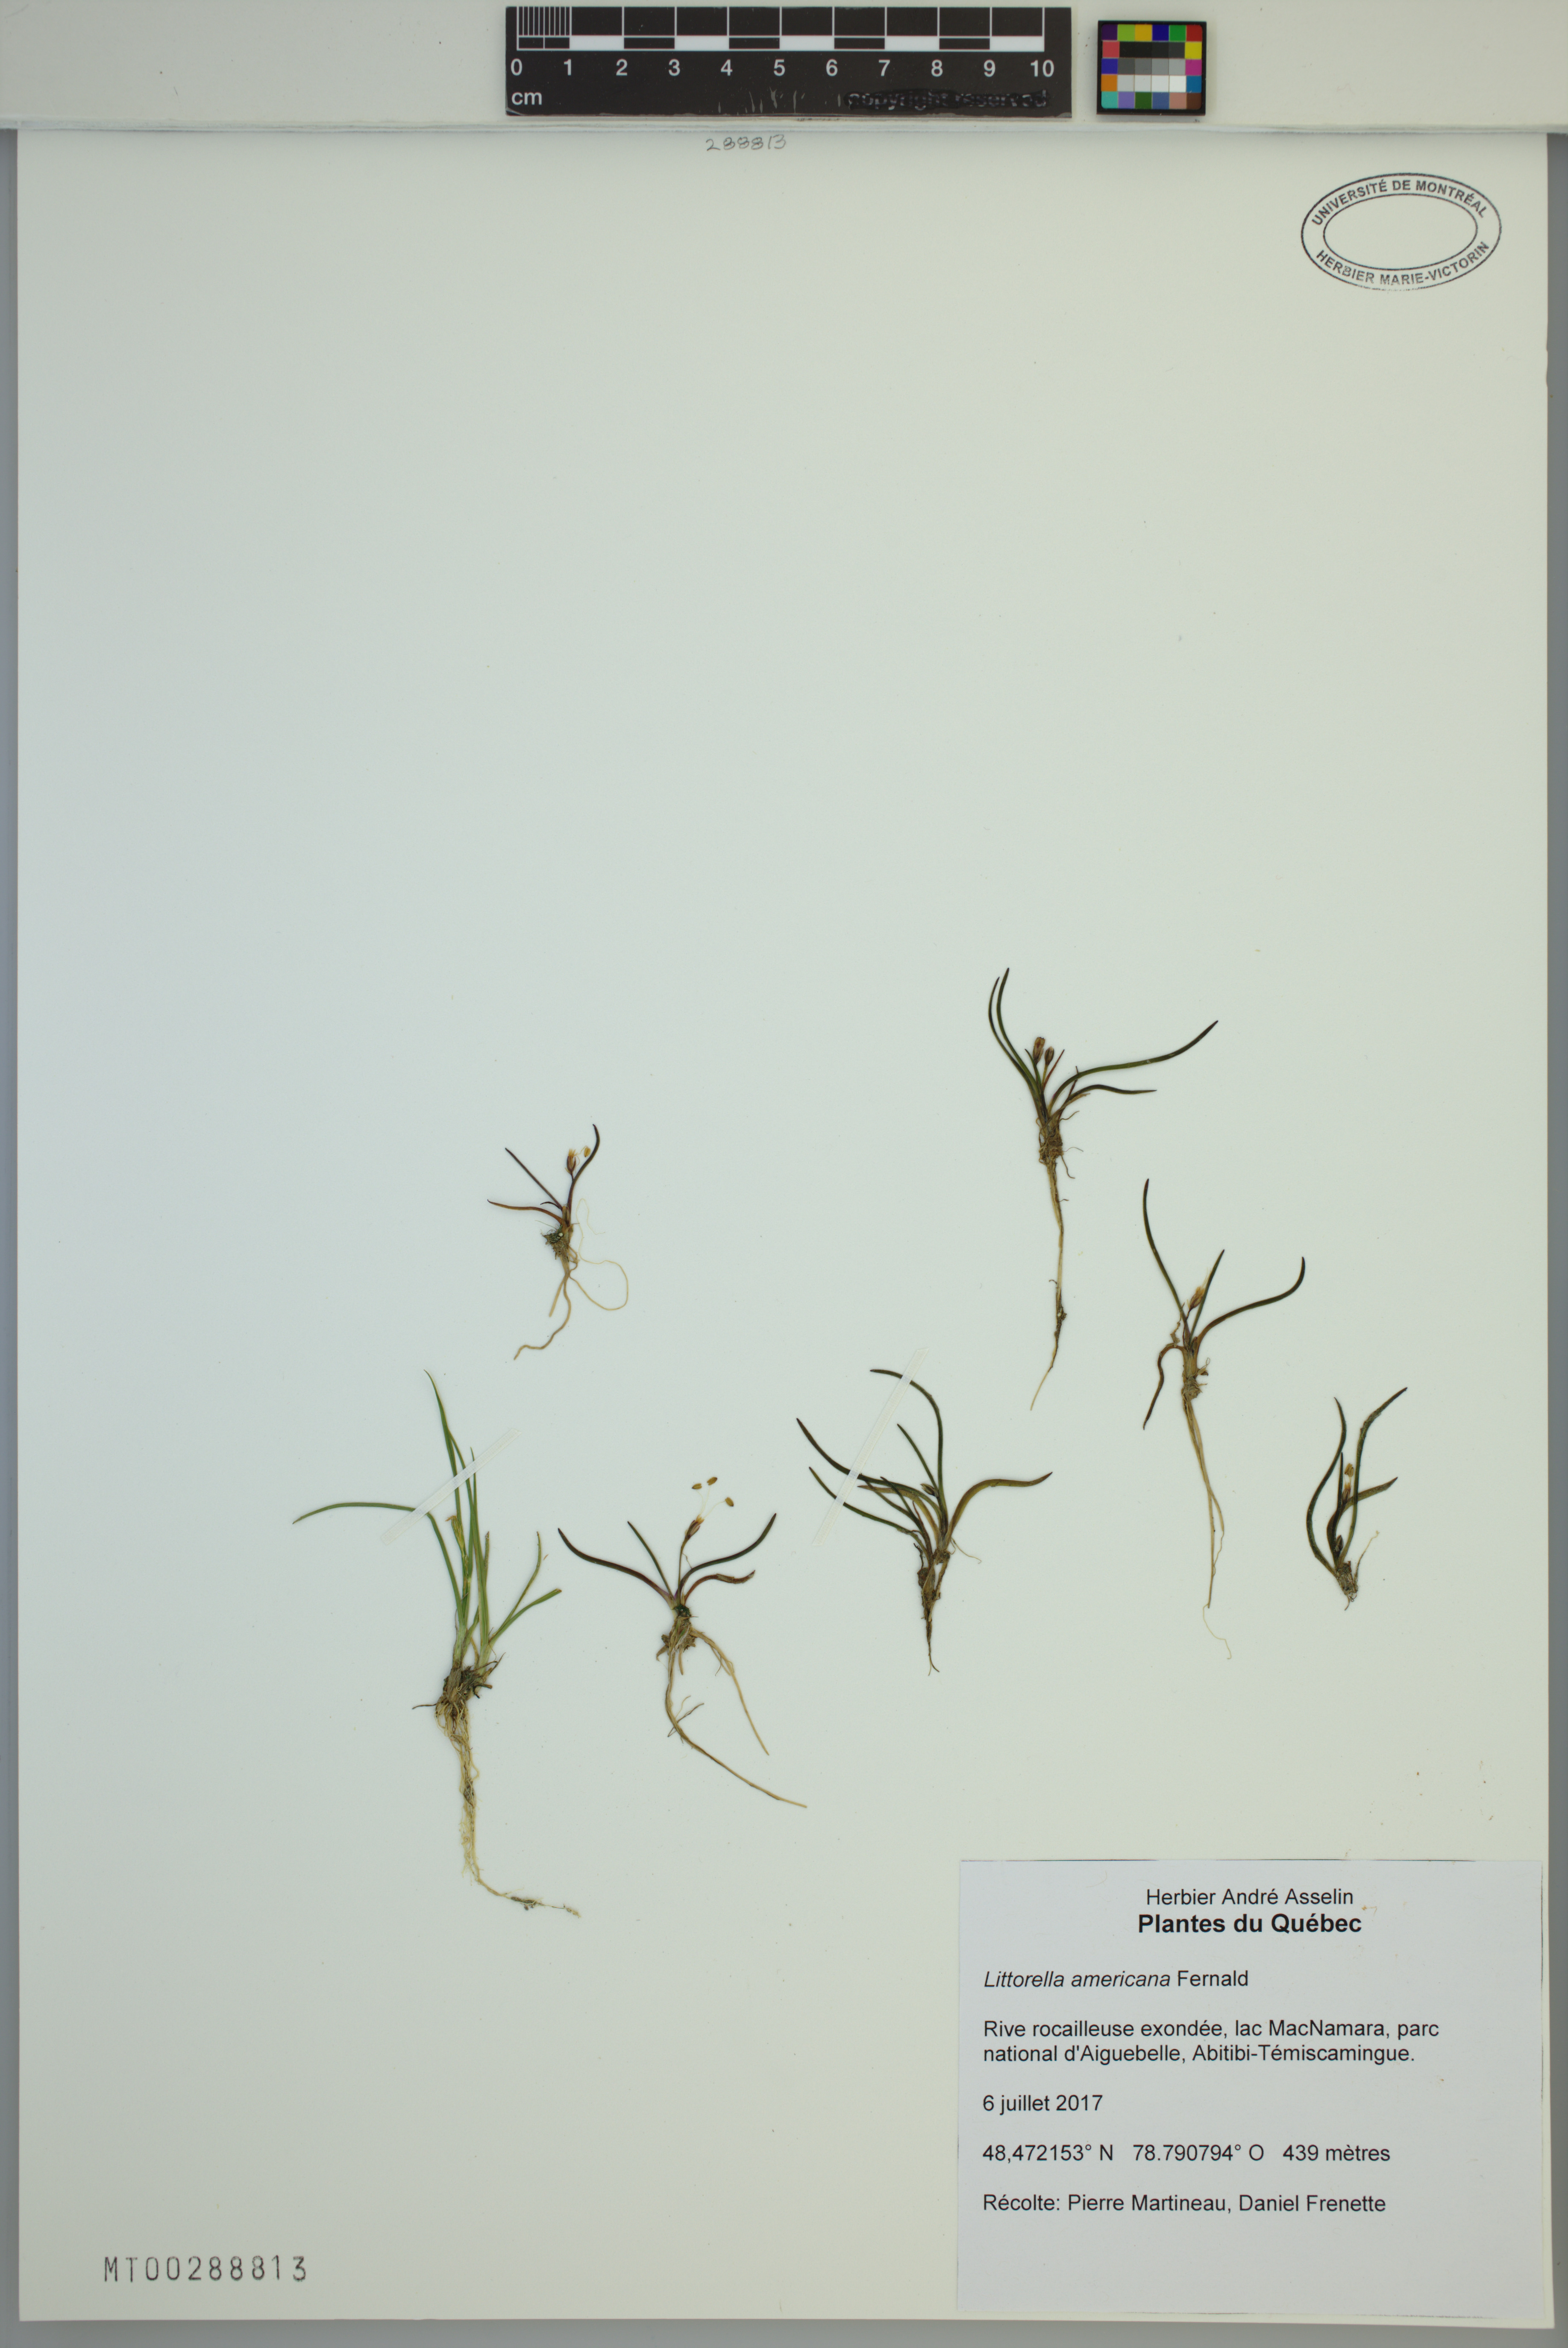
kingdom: Plantae
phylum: Tracheophyta
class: Magnoliopsida
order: Lamiales
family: Plantaginaceae
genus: Littorella
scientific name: Littorella americana
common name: American littorella
